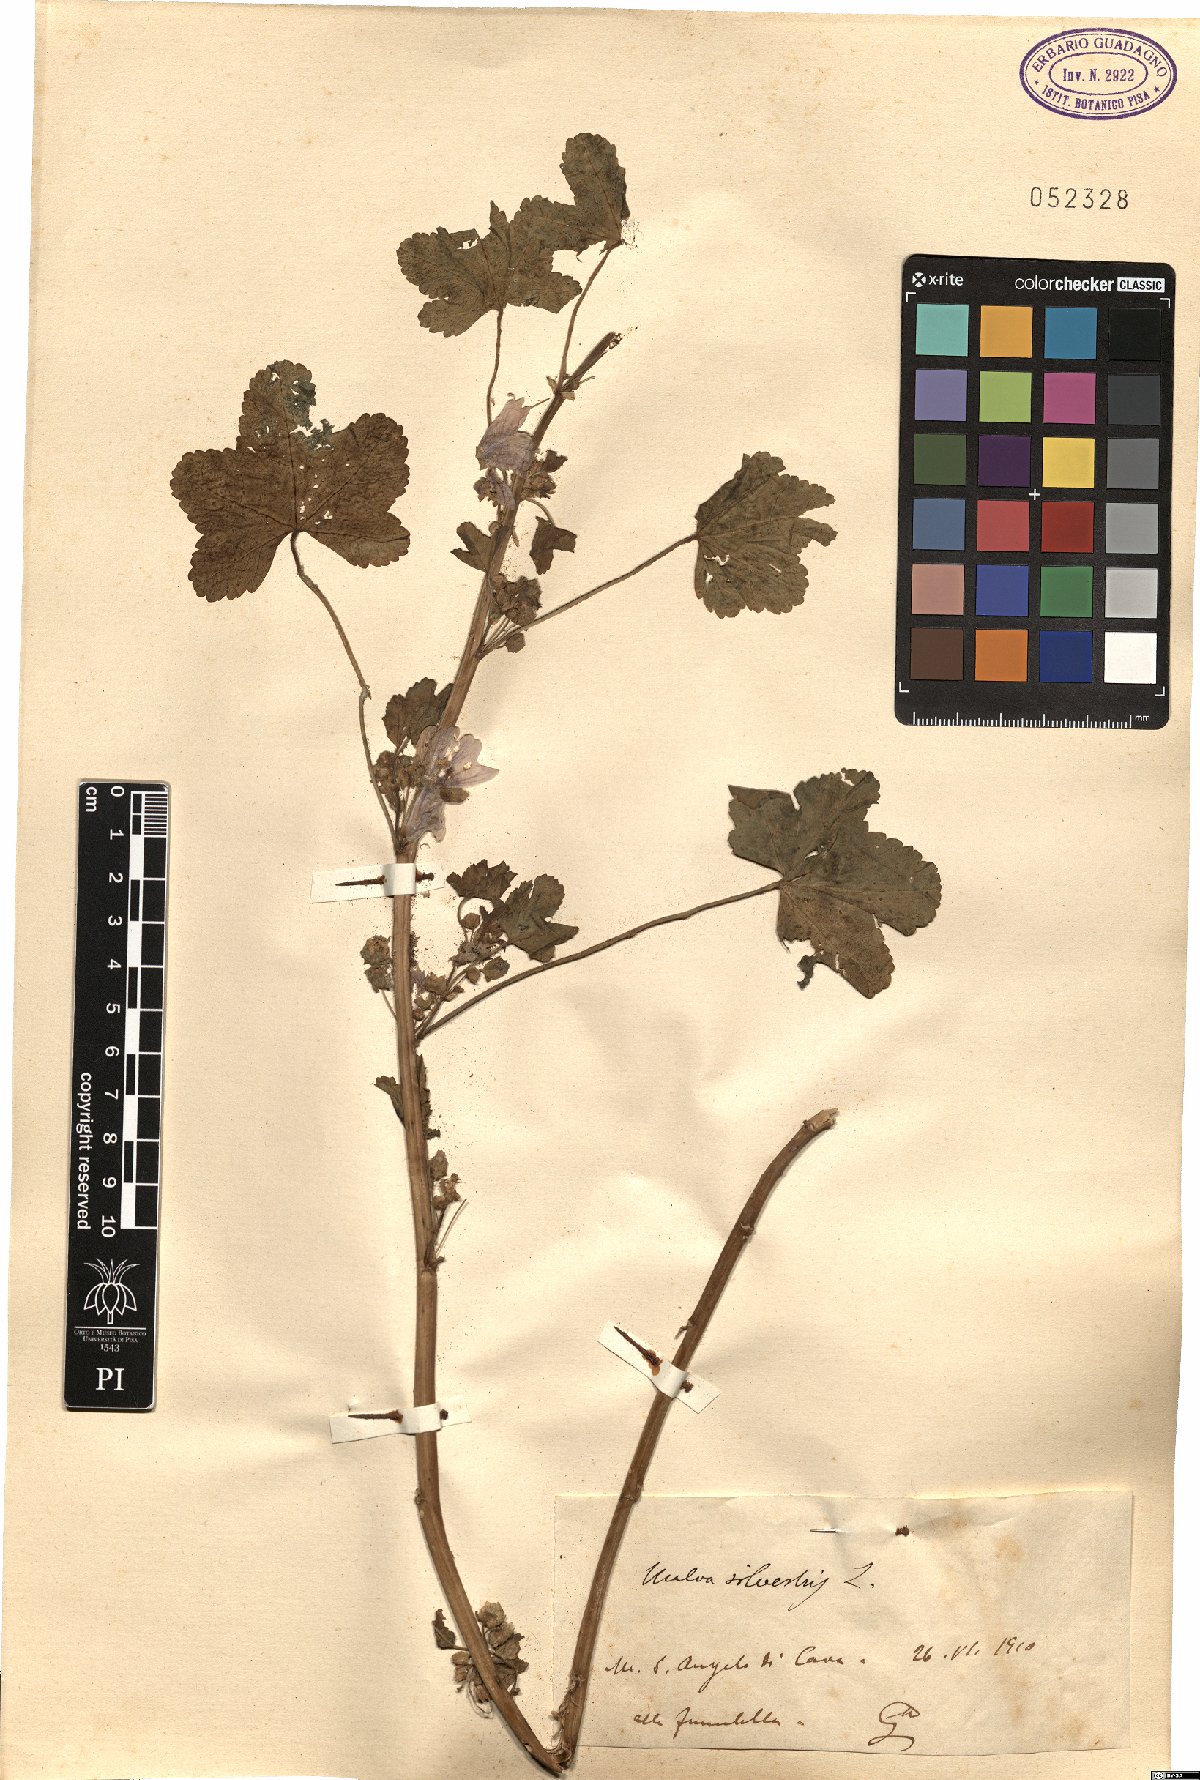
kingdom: Plantae
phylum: Tracheophyta
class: Magnoliopsida
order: Malvales
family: Malvaceae
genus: Malva
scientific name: Malva sylvestris
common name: Common mallow
